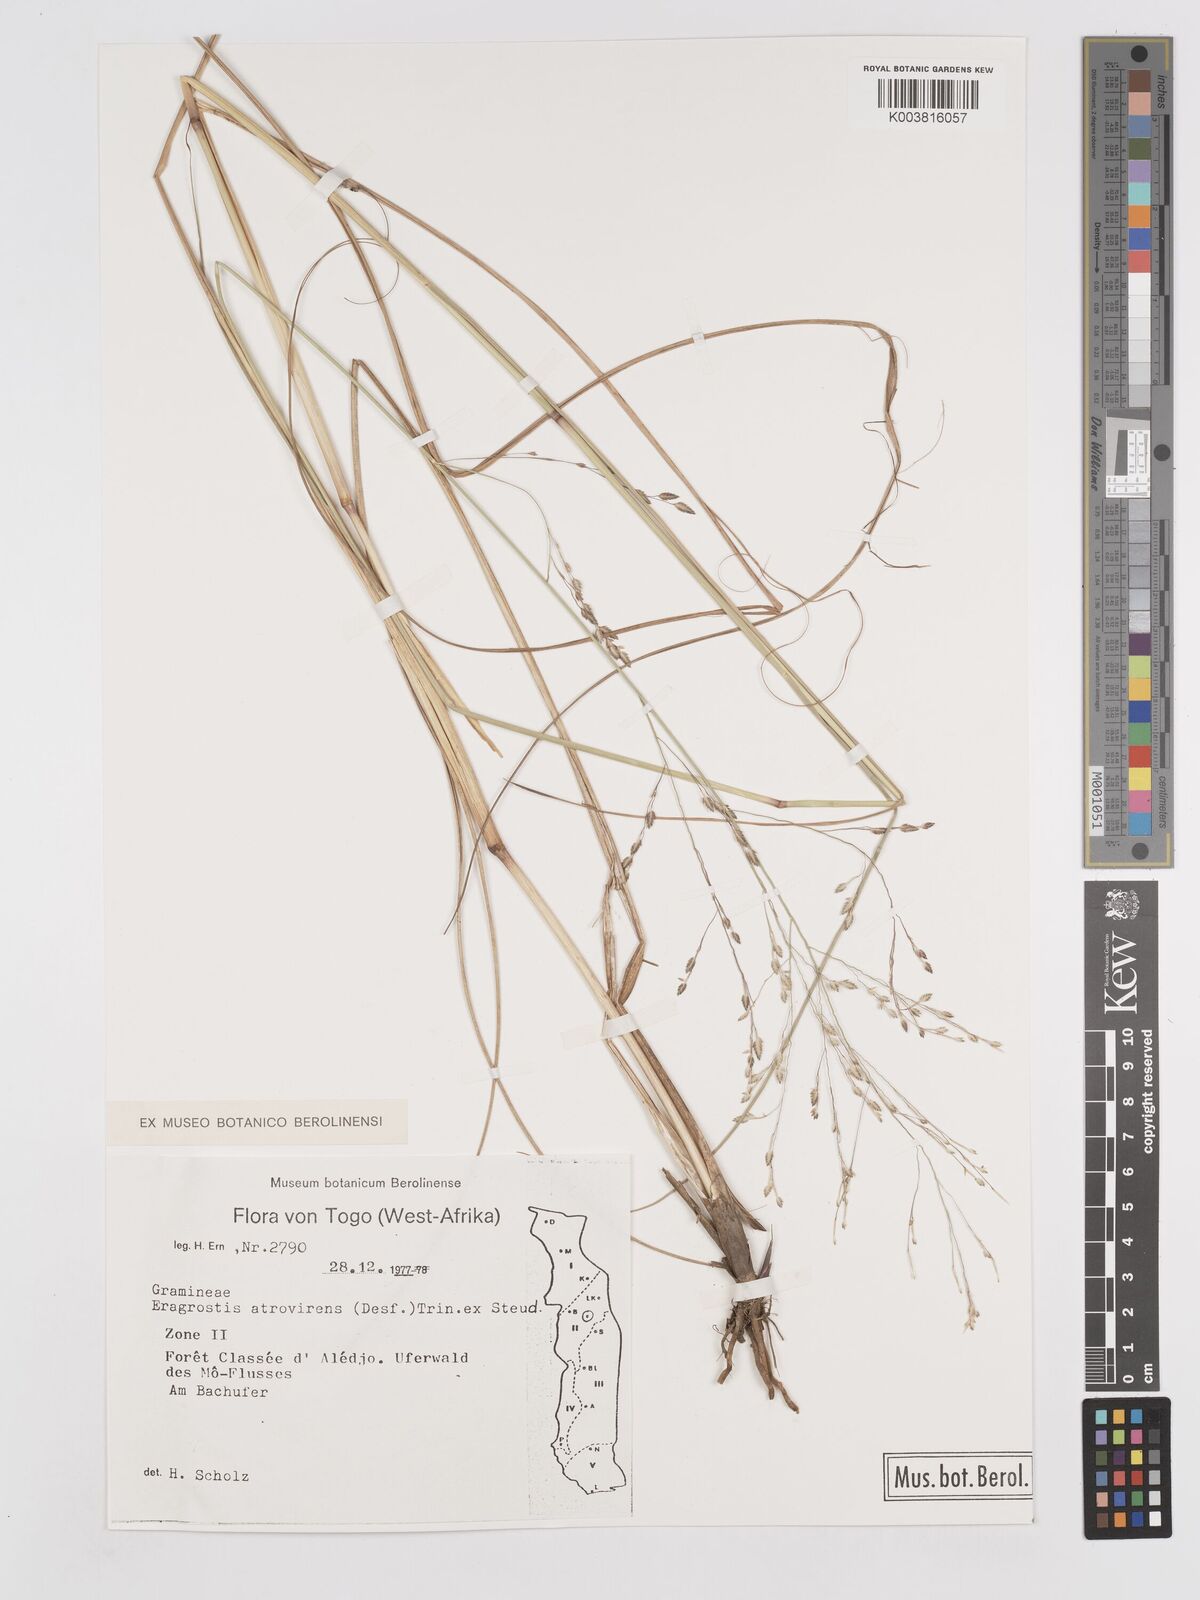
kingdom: Plantae
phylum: Tracheophyta
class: Liliopsida
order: Poales
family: Poaceae
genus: Eragrostis
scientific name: Eragrostis atrovirens
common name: Thalia lovegrass
